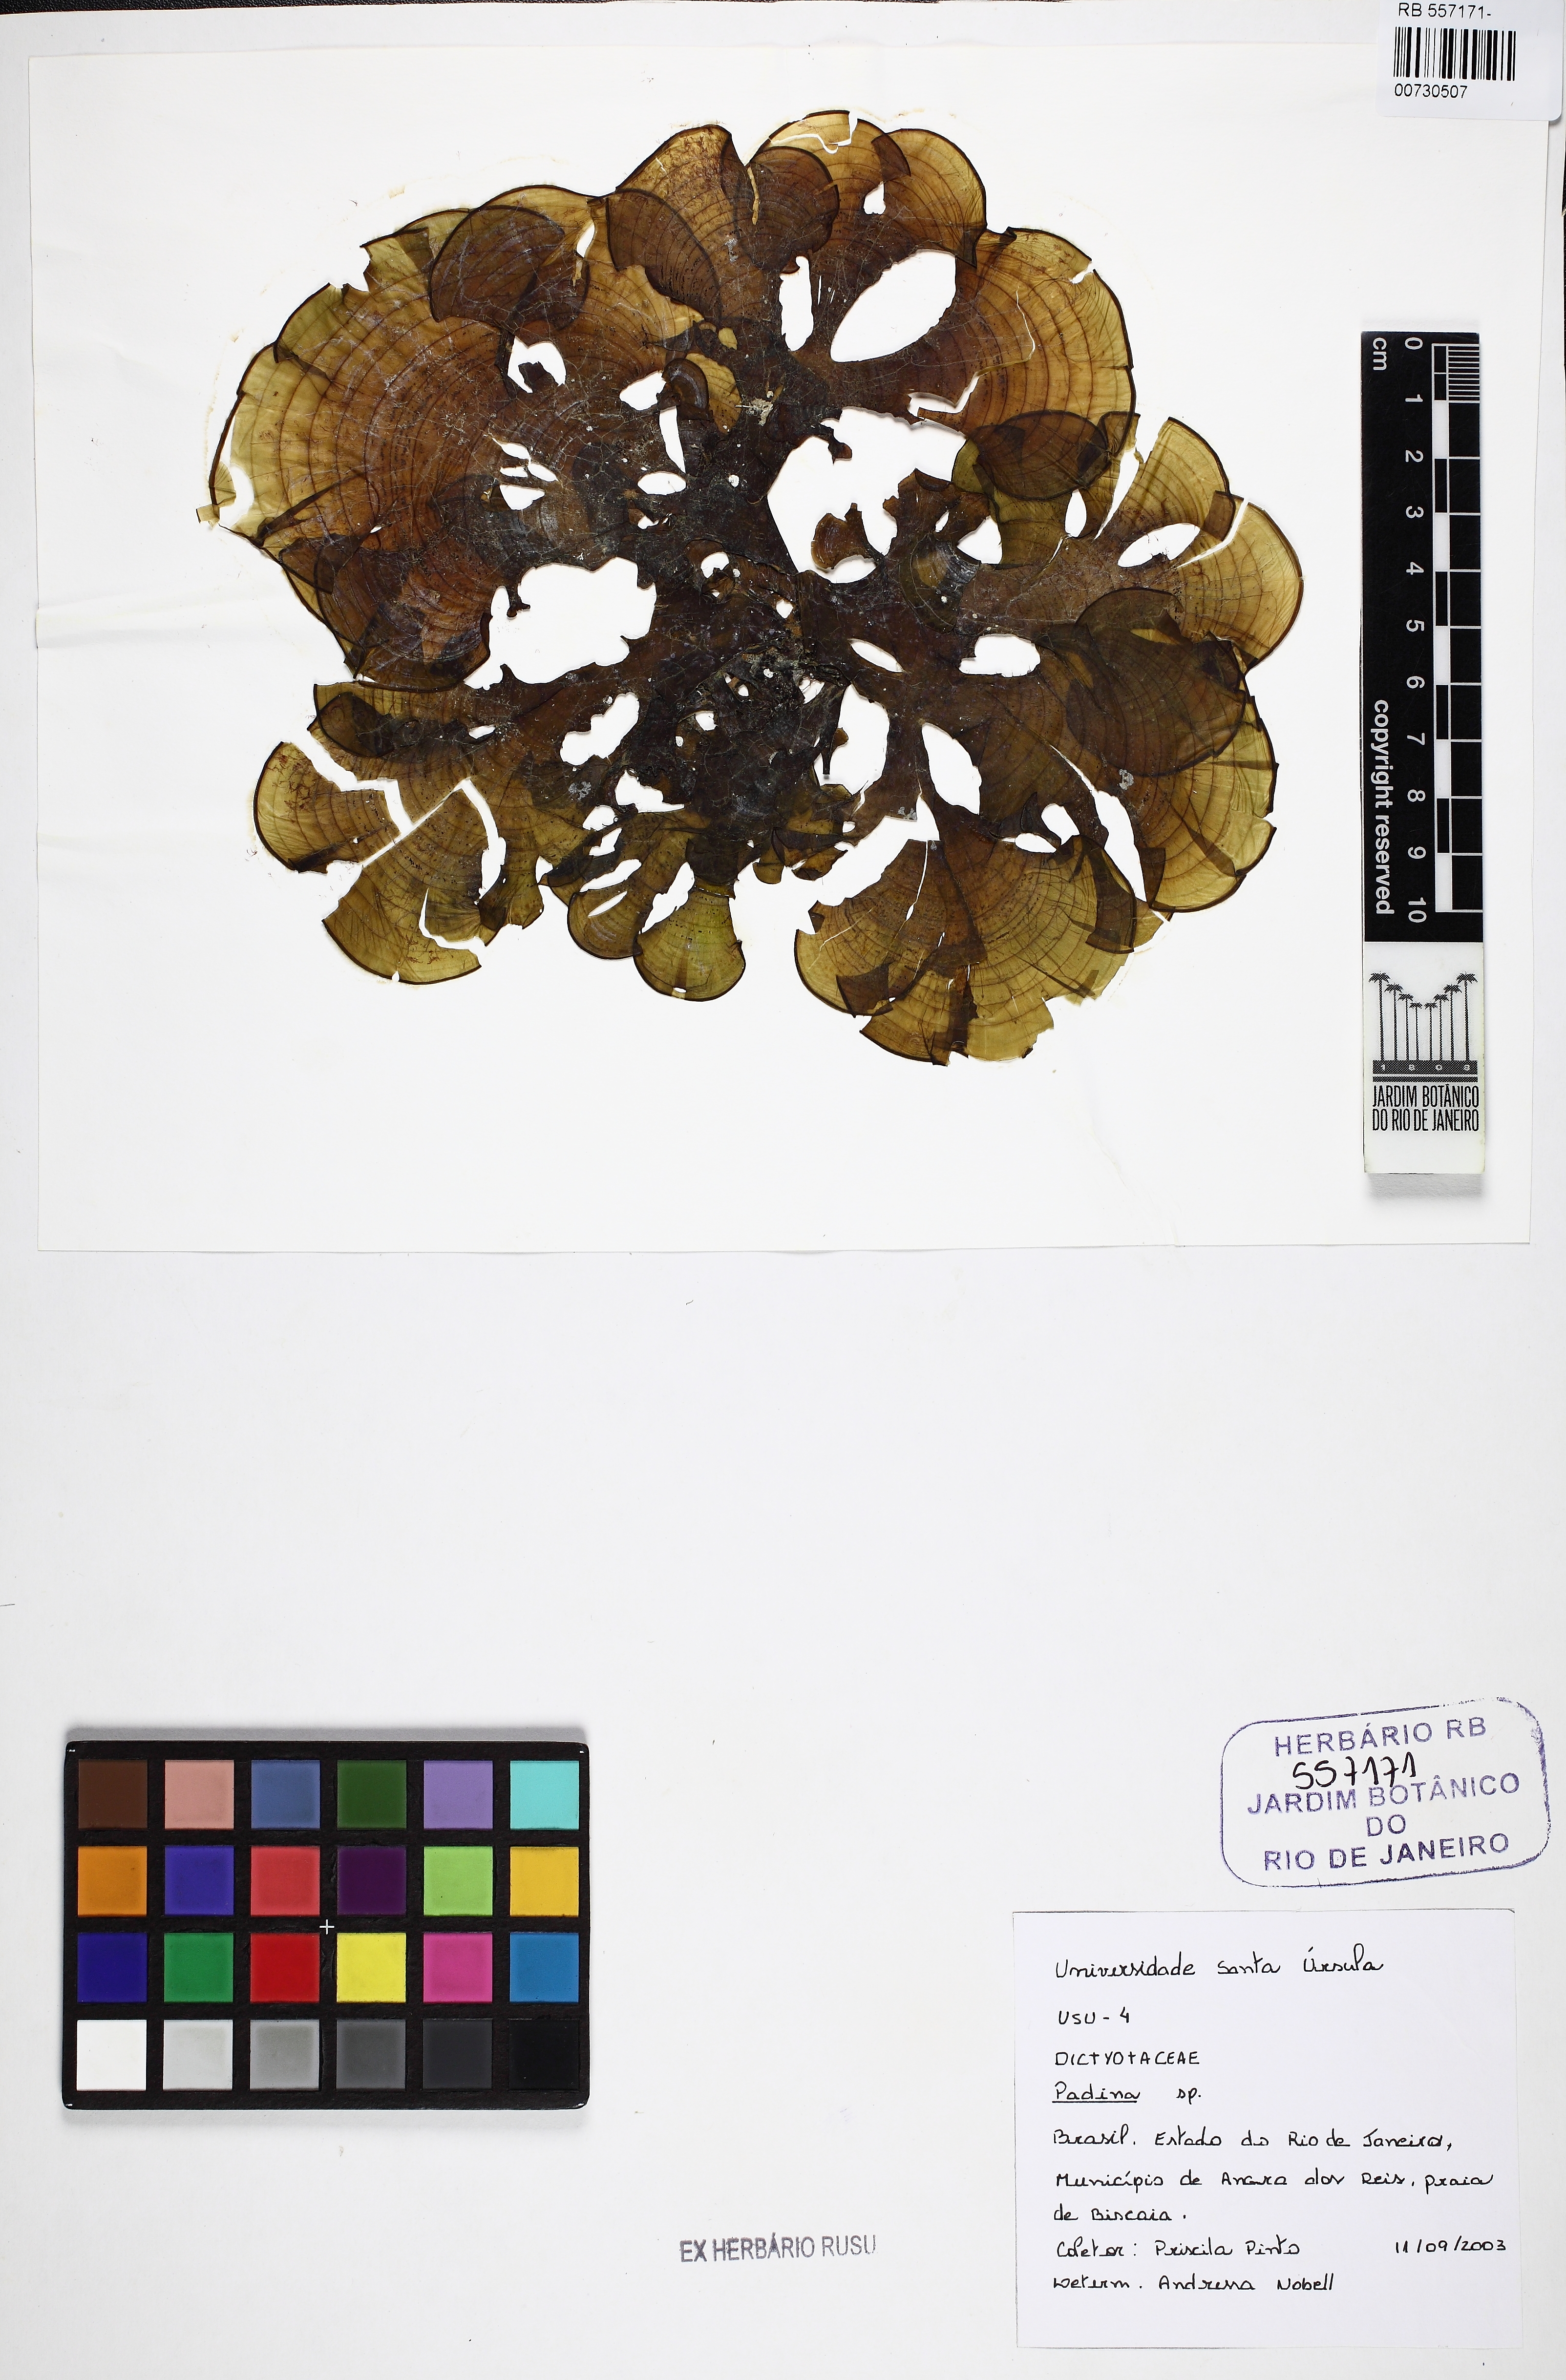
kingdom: Chromista
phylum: Ochrophyta
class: Phaeophyceae
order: Dictyotales
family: Dictyotaceae
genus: Padina
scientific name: Padina
